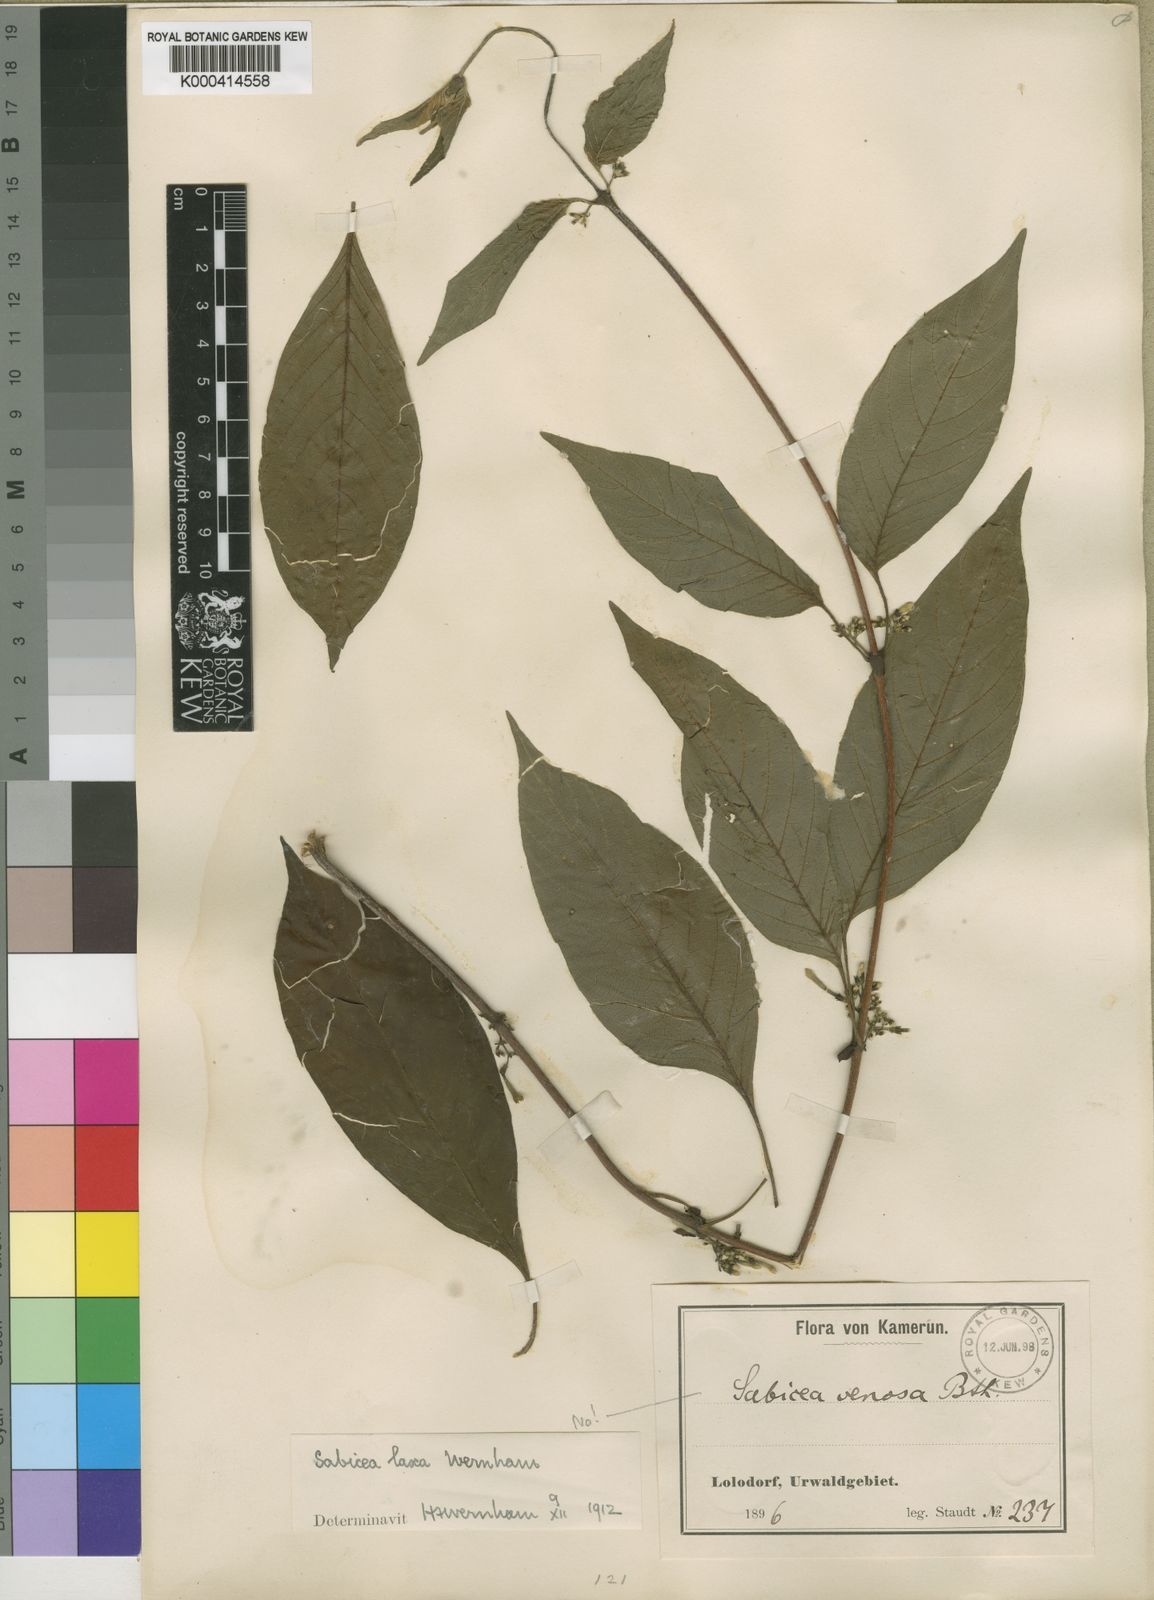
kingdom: Plantae
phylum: Tracheophyta
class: Magnoliopsida
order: Gentianales
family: Rubiaceae
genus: Sabicea
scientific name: Sabicea laxa
